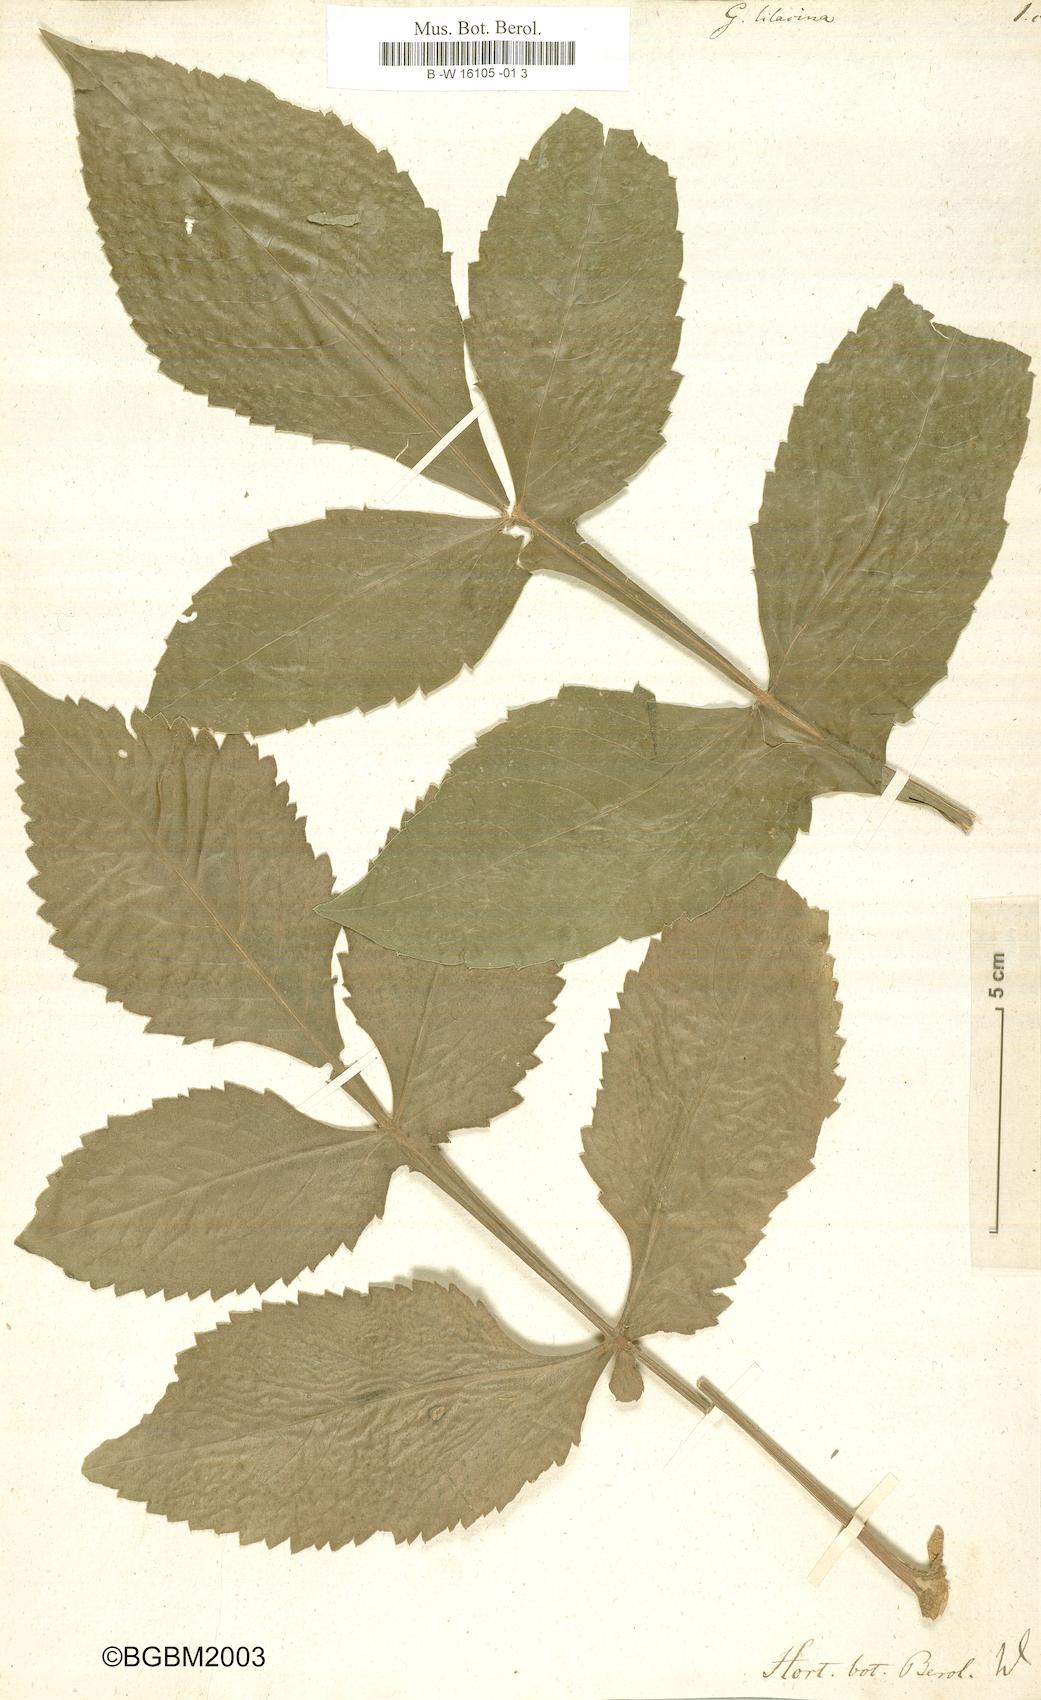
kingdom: Plantae
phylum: Tracheophyta
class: Magnoliopsida
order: Asterales
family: Asteraceae
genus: Dahlia
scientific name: Dahlia
